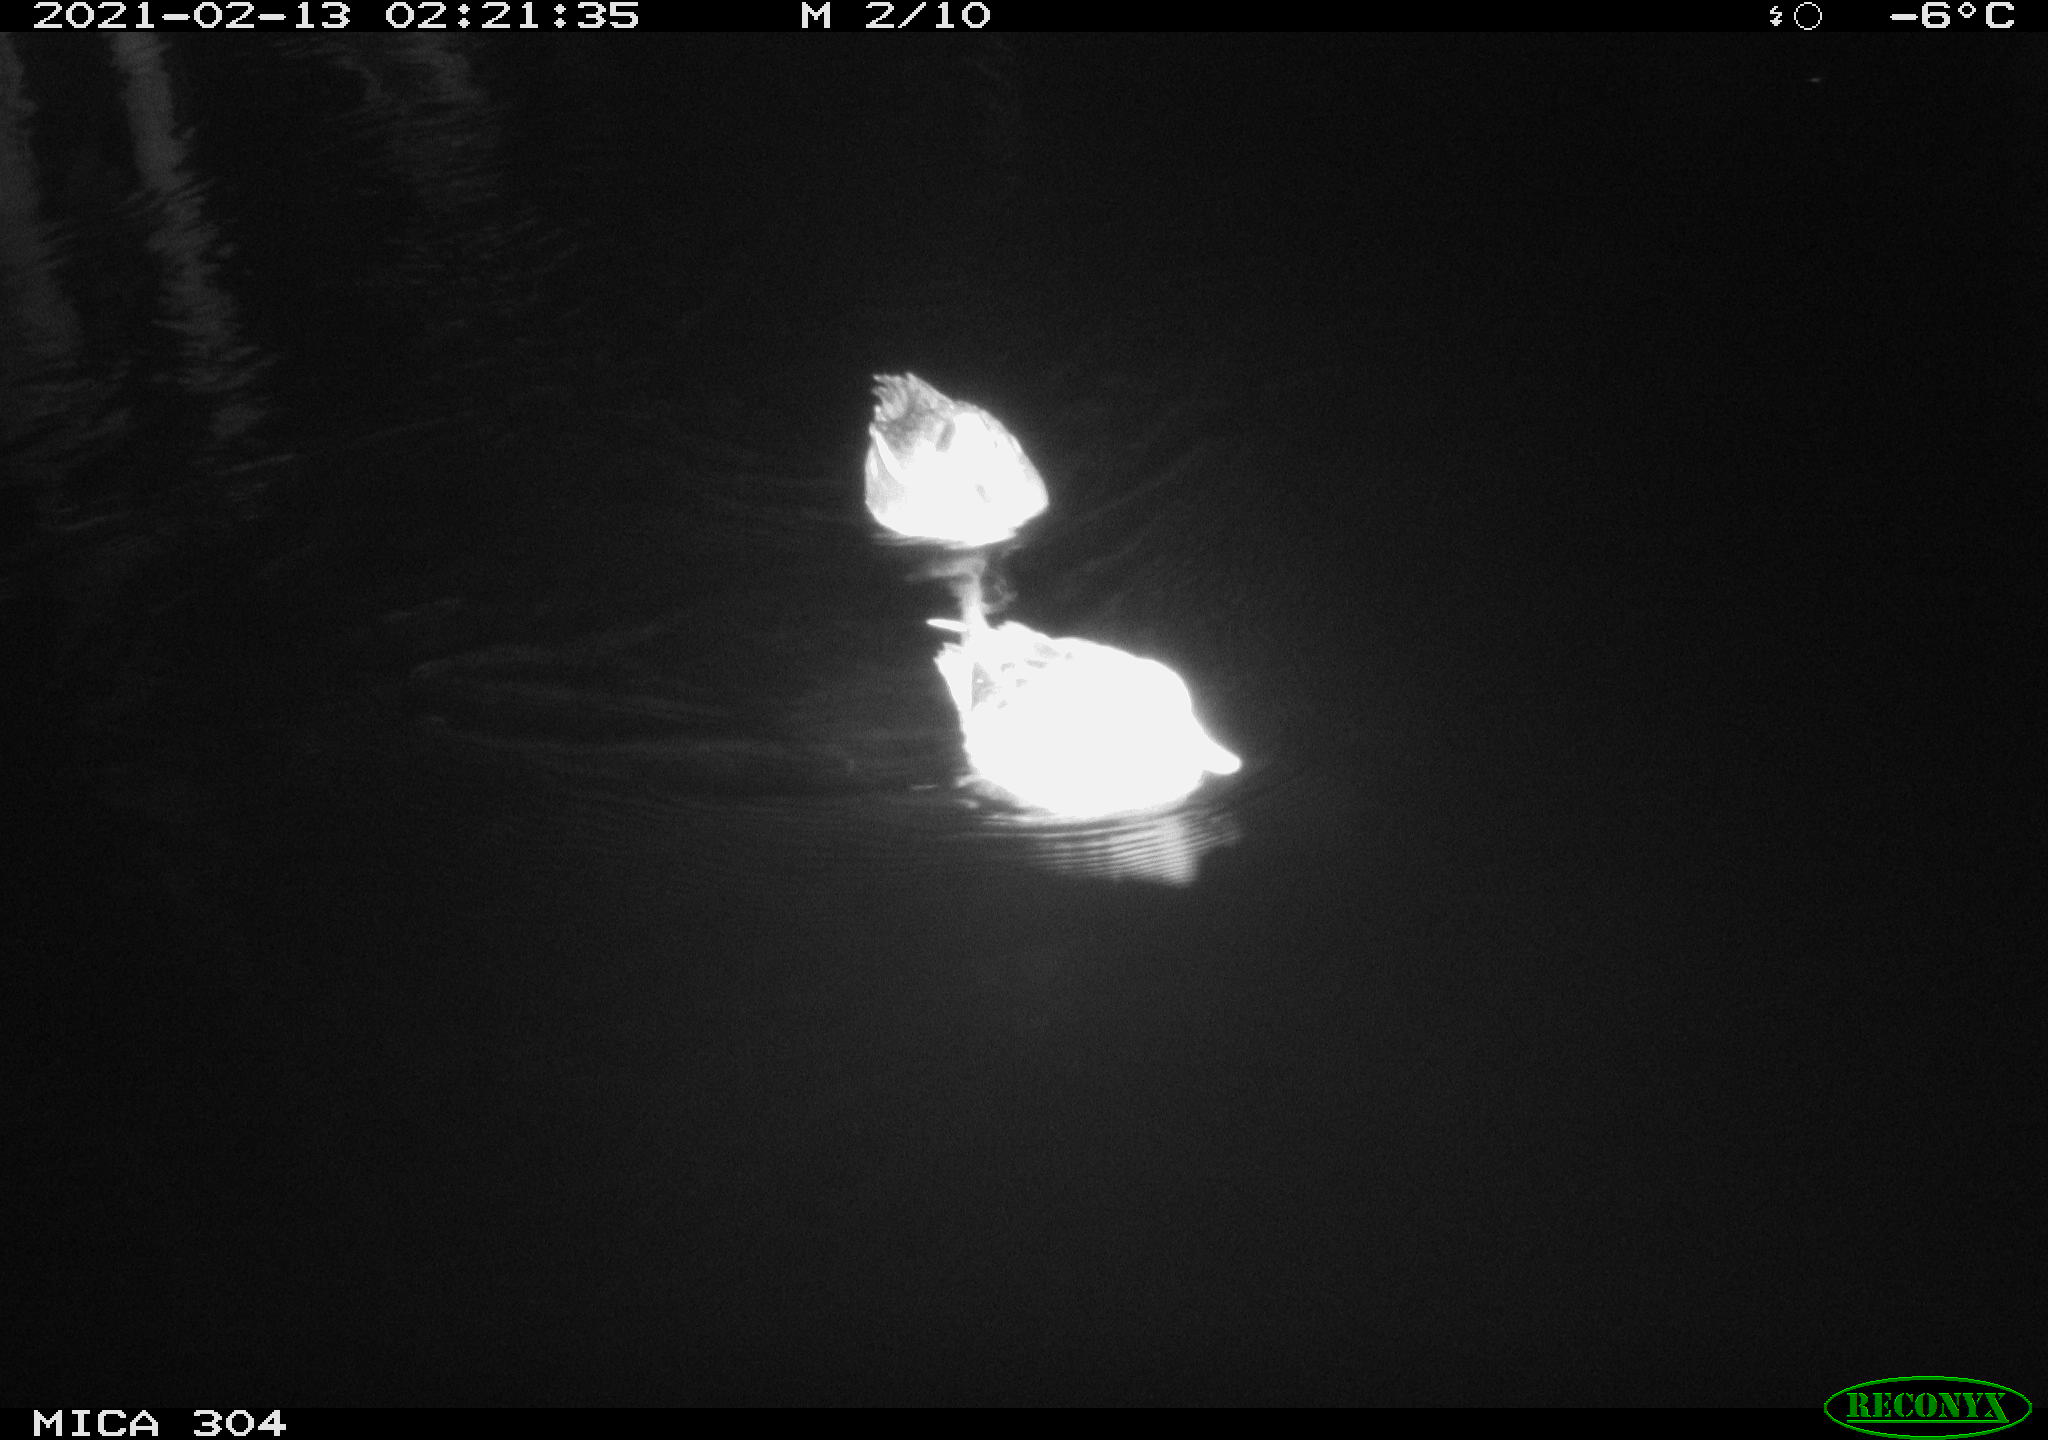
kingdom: Animalia
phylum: Chordata
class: Aves
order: Anseriformes
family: Anatidae
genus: Anas
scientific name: Anas crecca
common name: Eurasian teal
